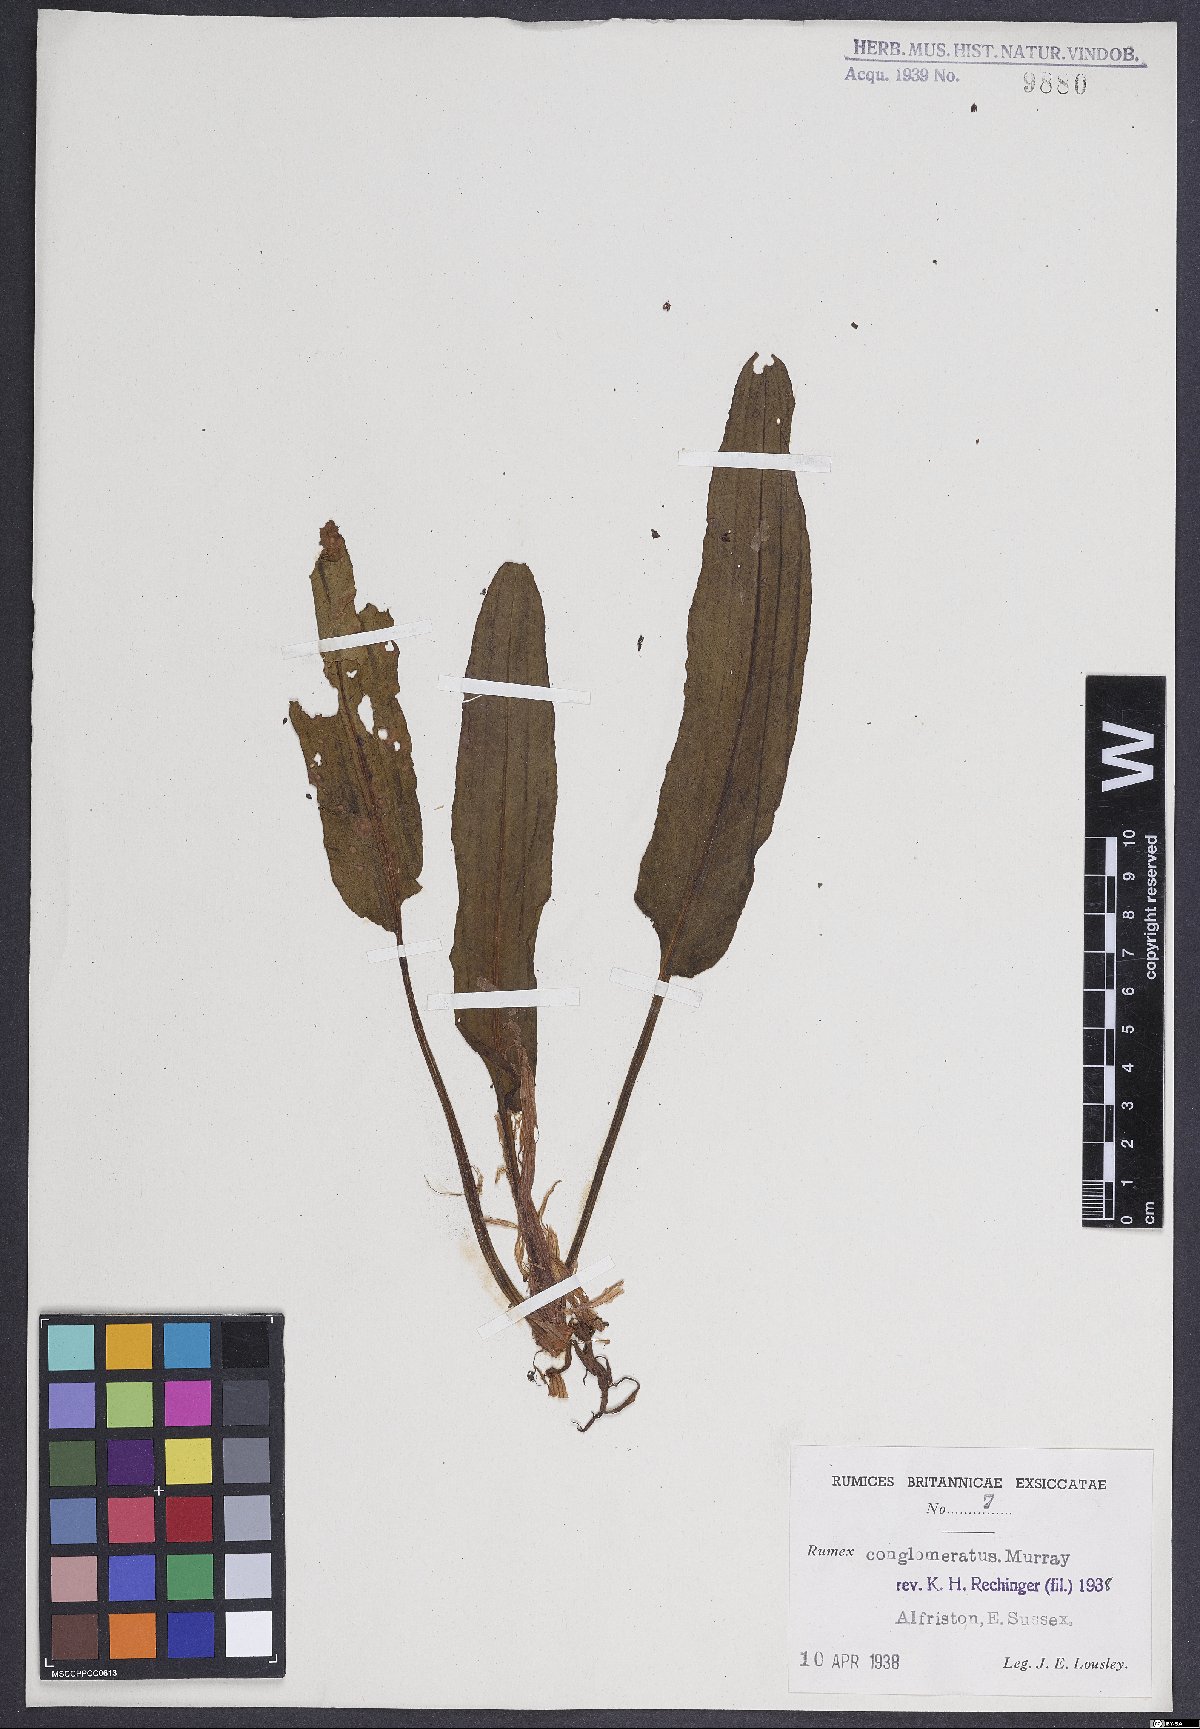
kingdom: Plantae
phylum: Tracheophyta
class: Magnoliopsida
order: Caryophyllales
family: Polygonaceae
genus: Rumex
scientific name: Rumex conglomeratus
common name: Clustered dock
